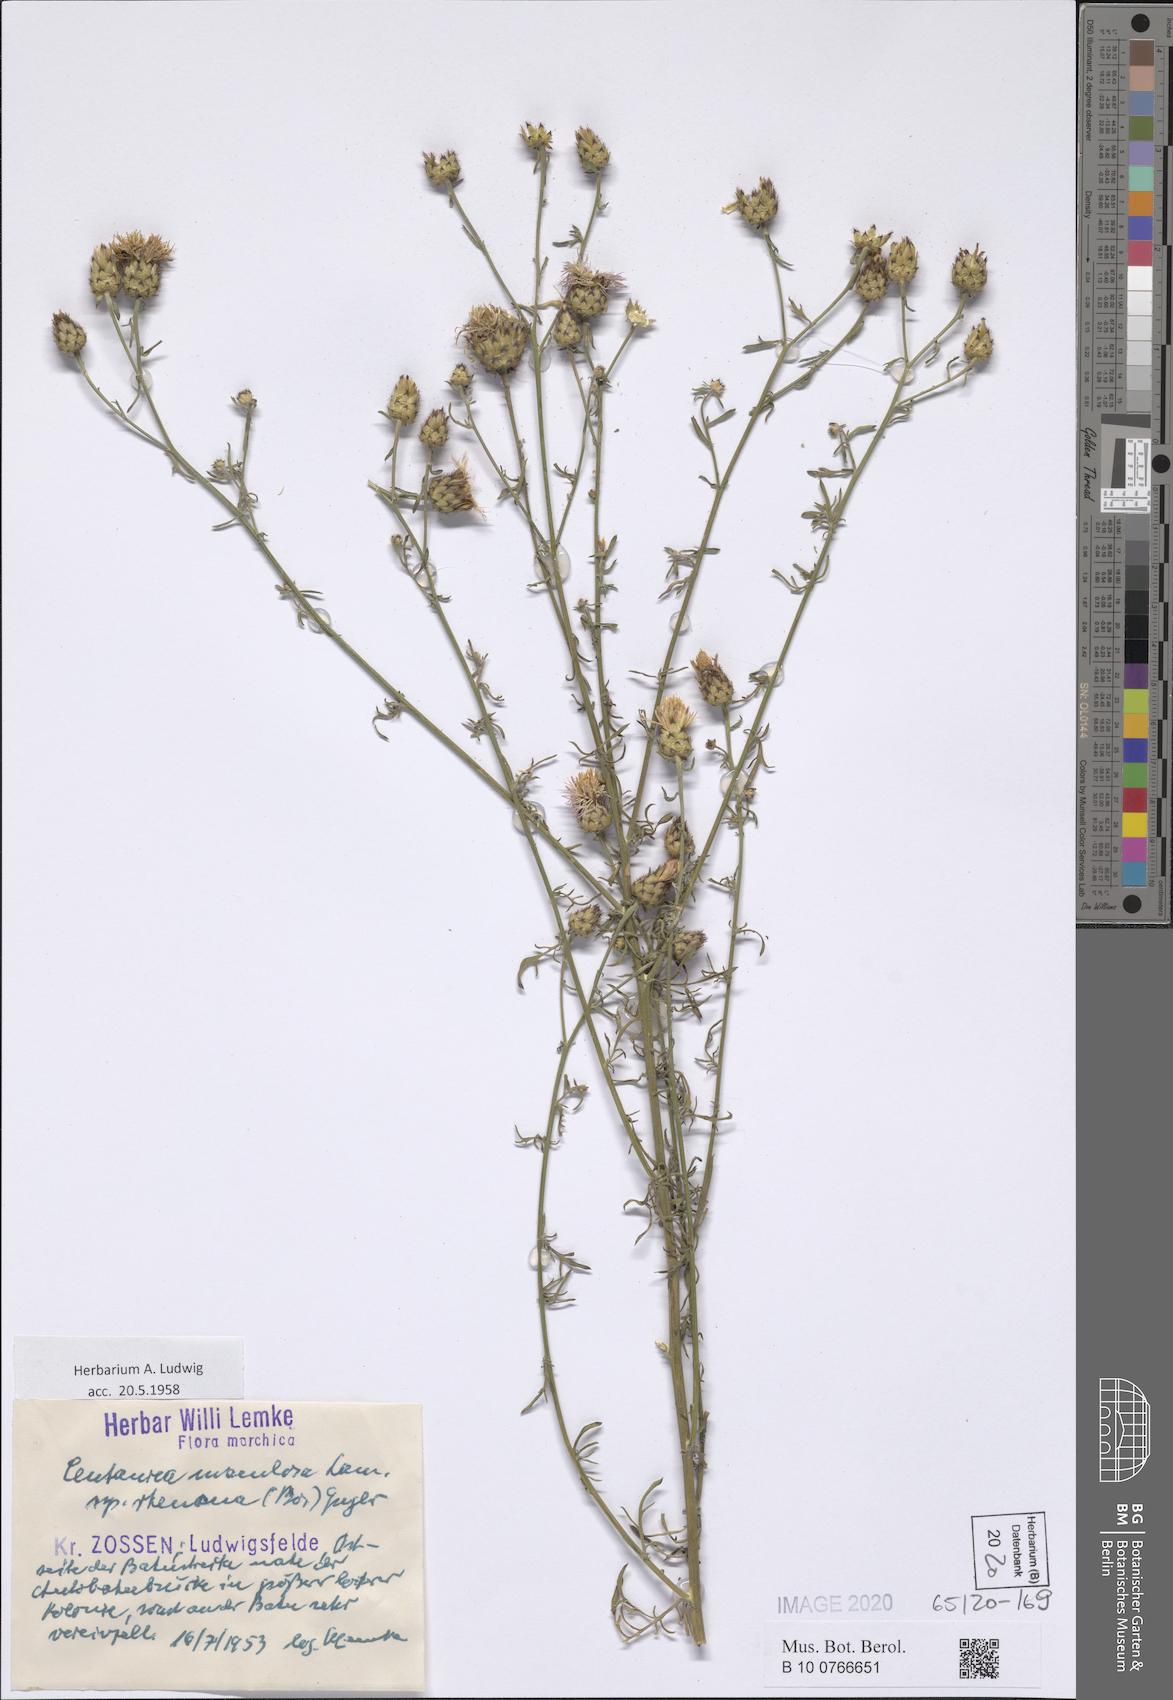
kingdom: Plantae
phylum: Tracheophyta
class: Magnoliopsida
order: Asterales
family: Asteraceae
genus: Centaurea
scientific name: Centaurea stoebe
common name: Spotted knapweed
